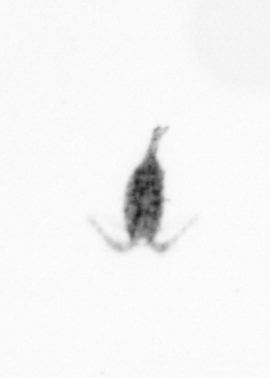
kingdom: Animalia
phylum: Arthropoda
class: Copepoda
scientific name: Copepoda
